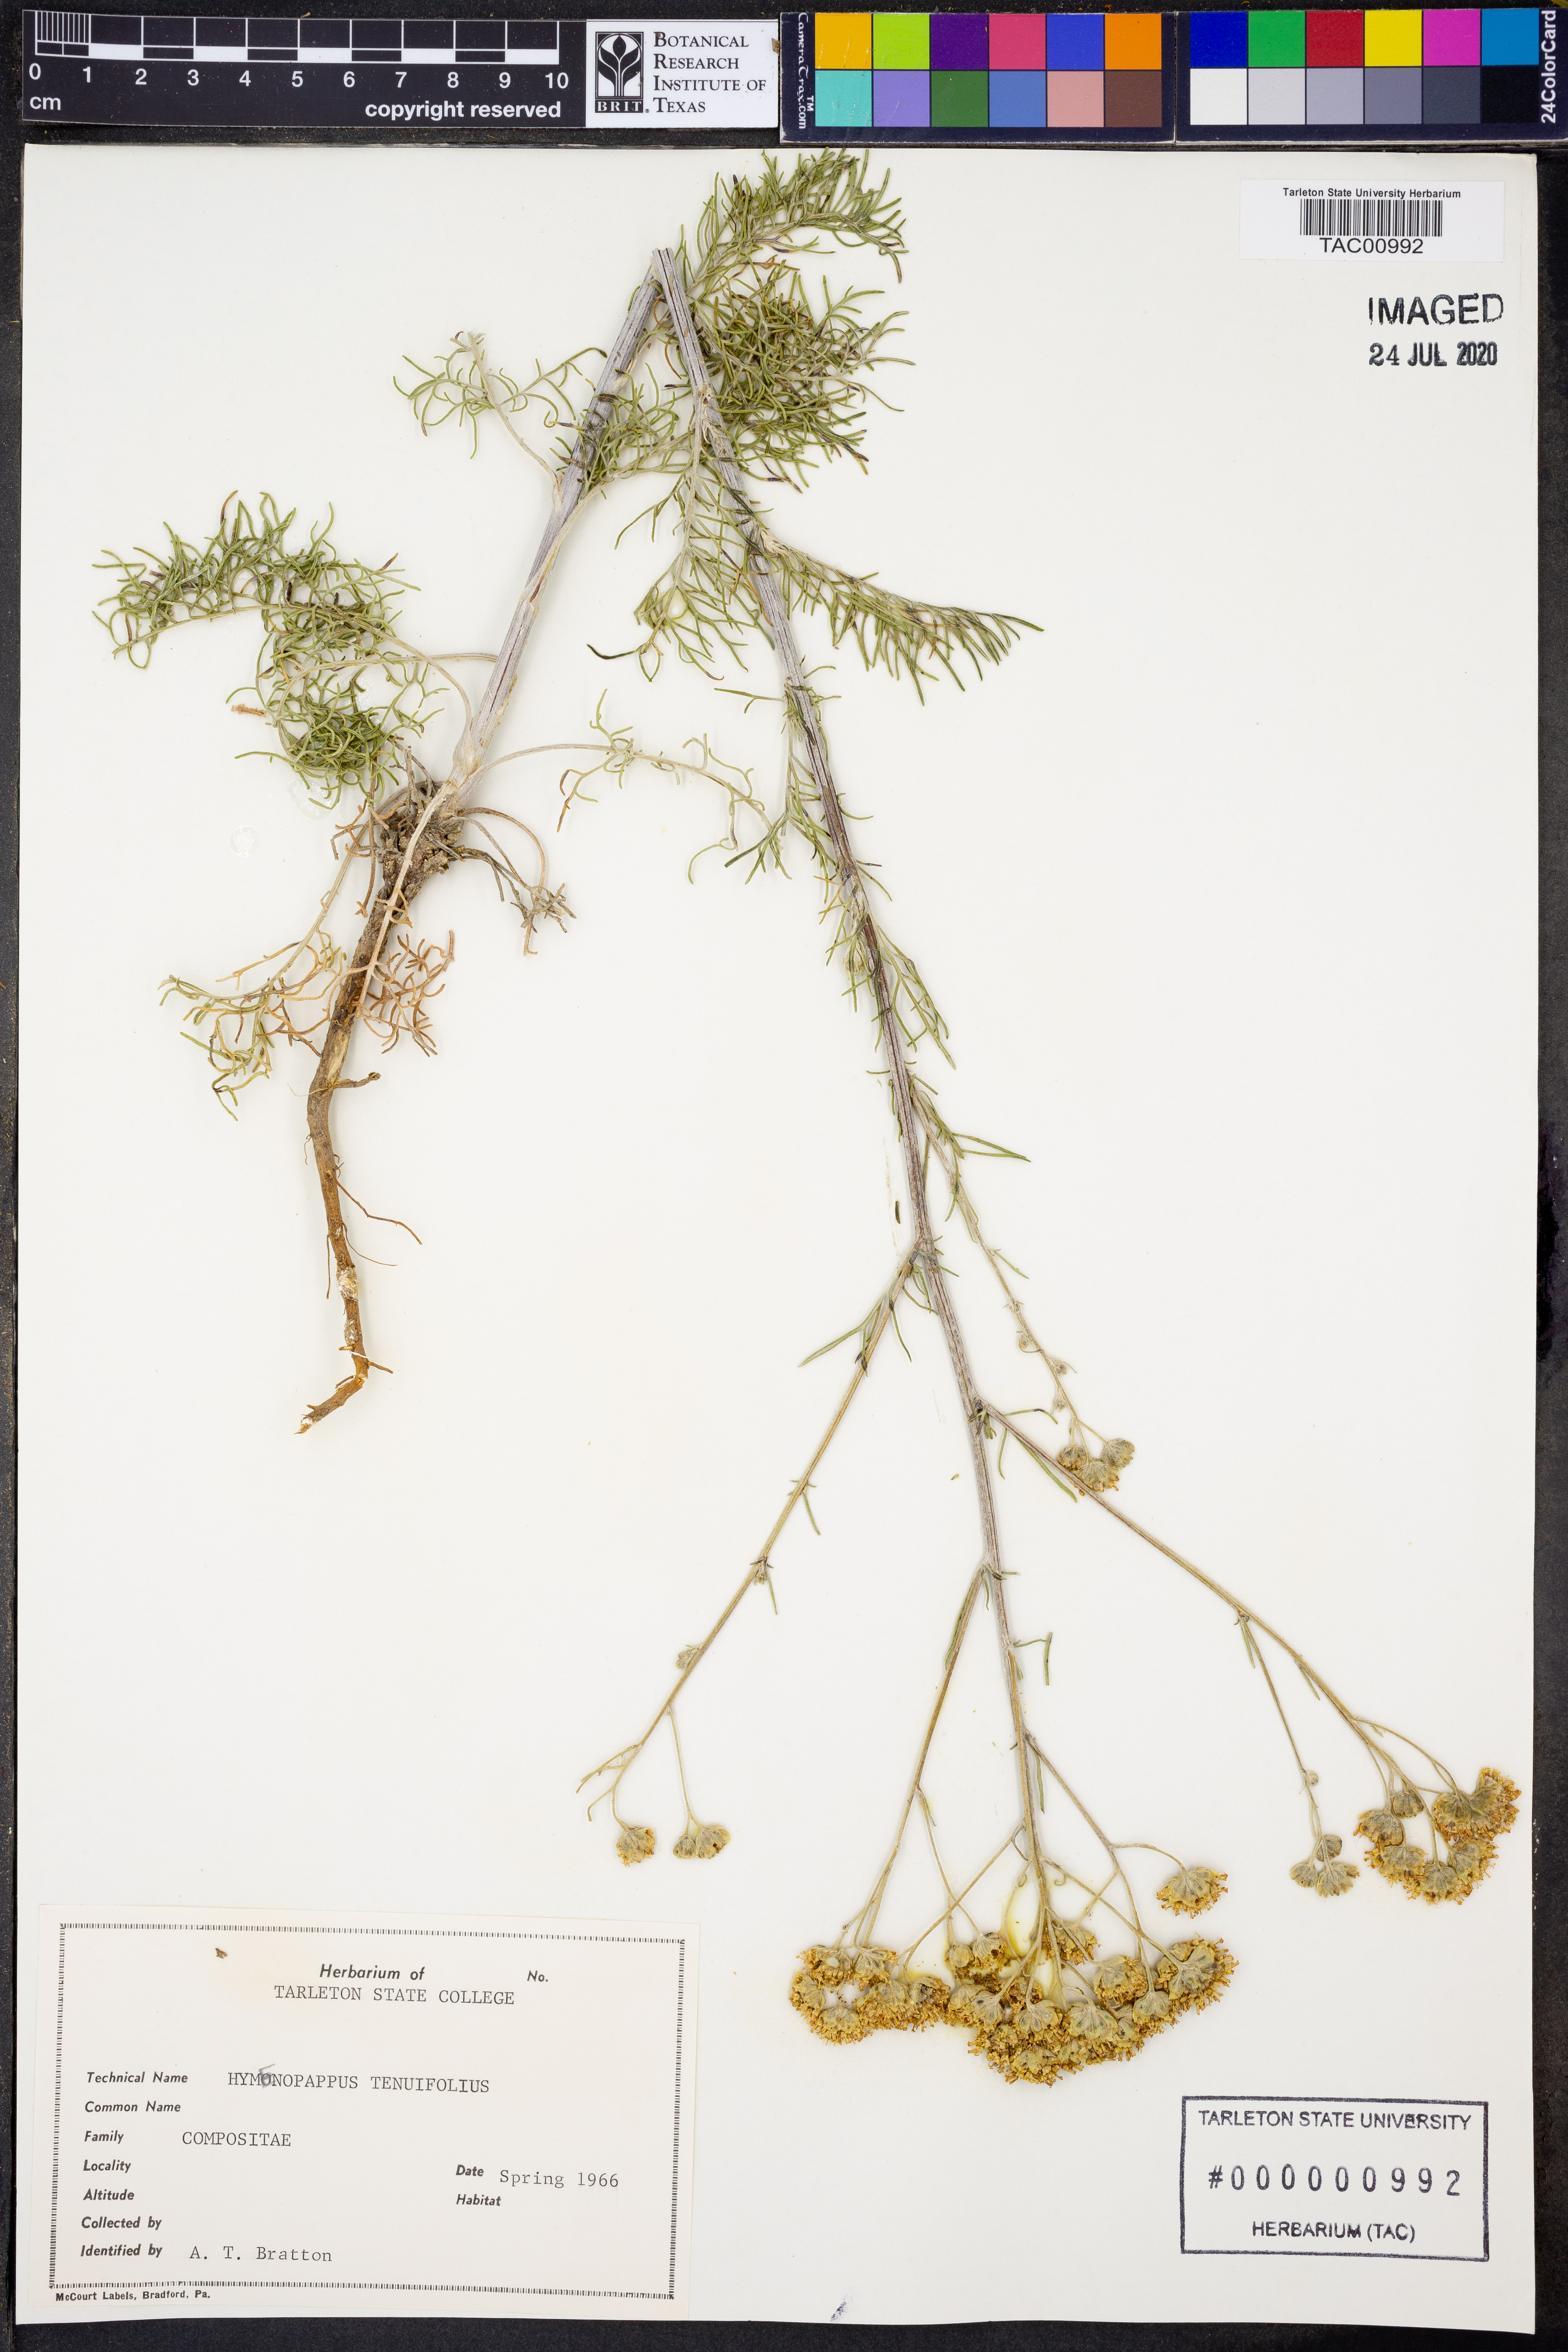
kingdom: Plantae
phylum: Tracheophyta
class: Magnoliopsida
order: Asterales
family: Asteraceae
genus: Hymenopappus
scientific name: Hymenopappus tenuifolius
